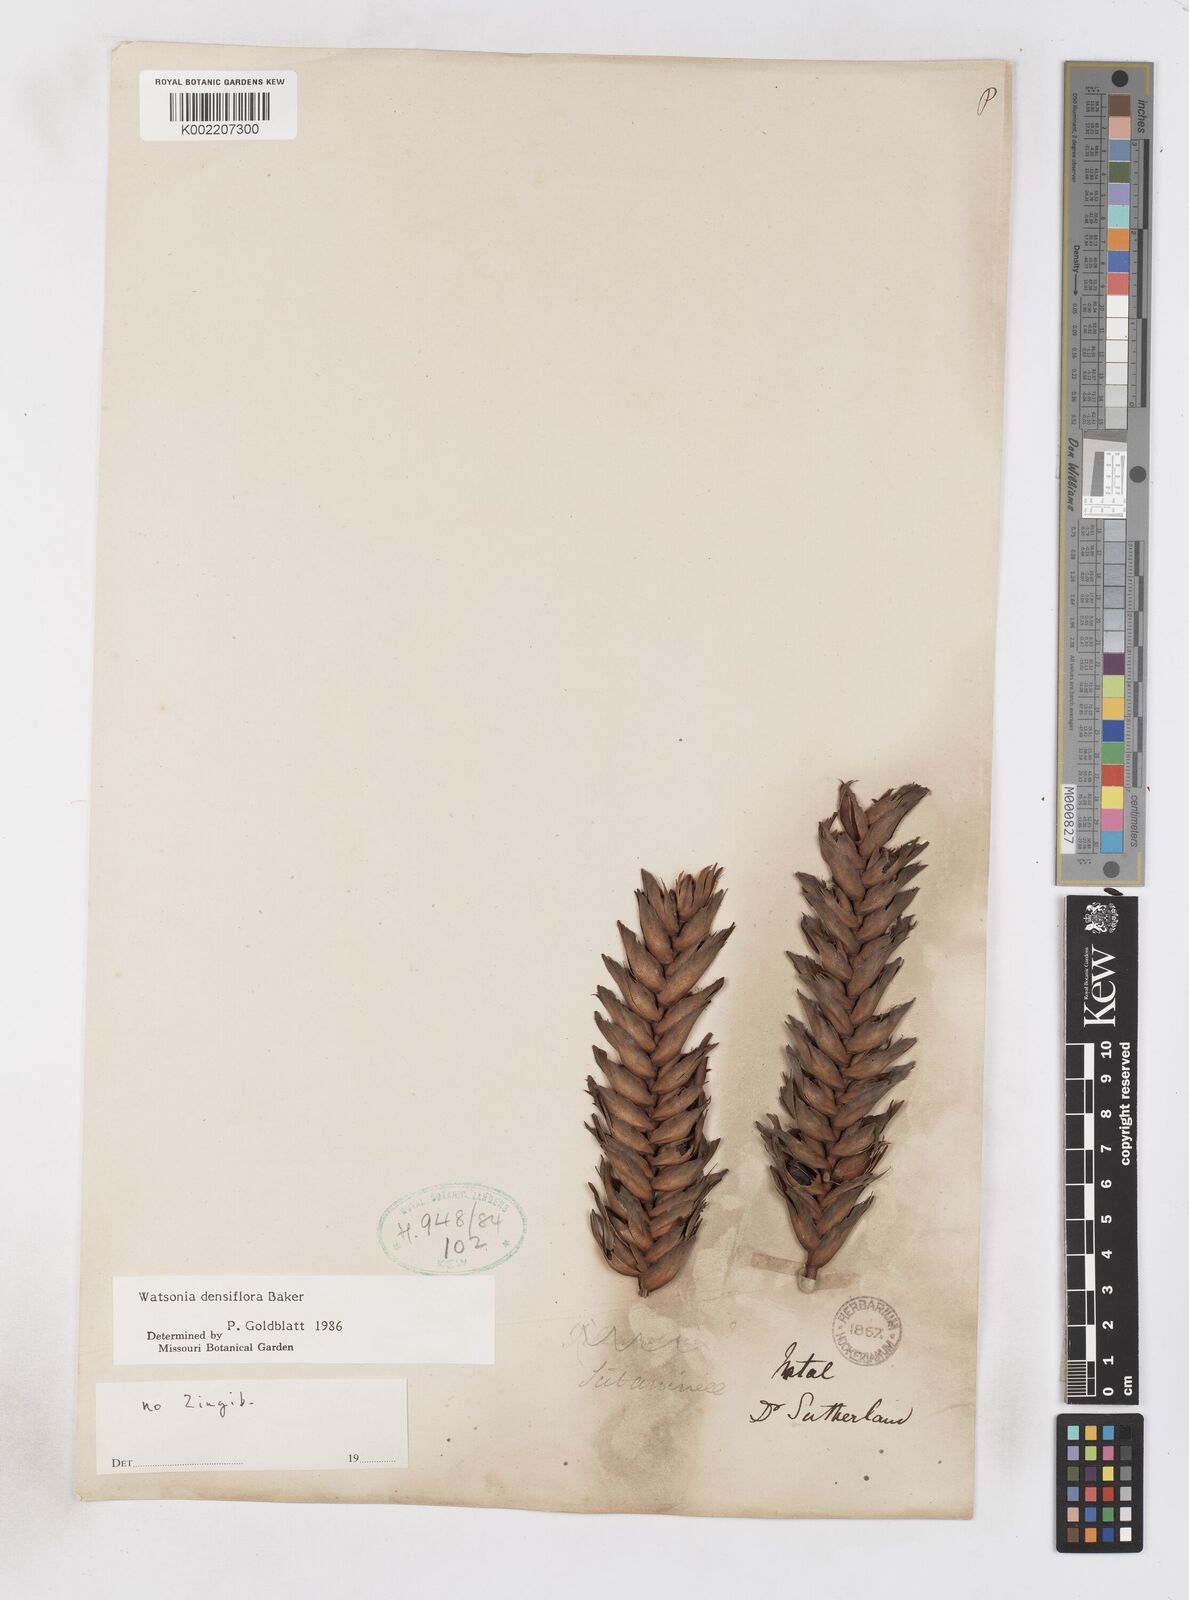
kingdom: Plantae
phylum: Tracheophyta
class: Liliopsida
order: Asparagales
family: Iridaceae
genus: Watsonia
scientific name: Watsonia densiflora
